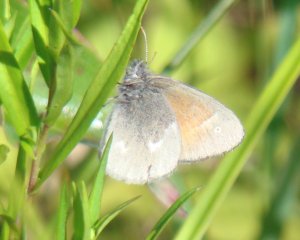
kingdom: Animalia
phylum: Arthropoda
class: Insecta
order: Lepidoptera
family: Nymphalidae
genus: Coenonympha
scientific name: Coenonympha tullia
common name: Large Heath
